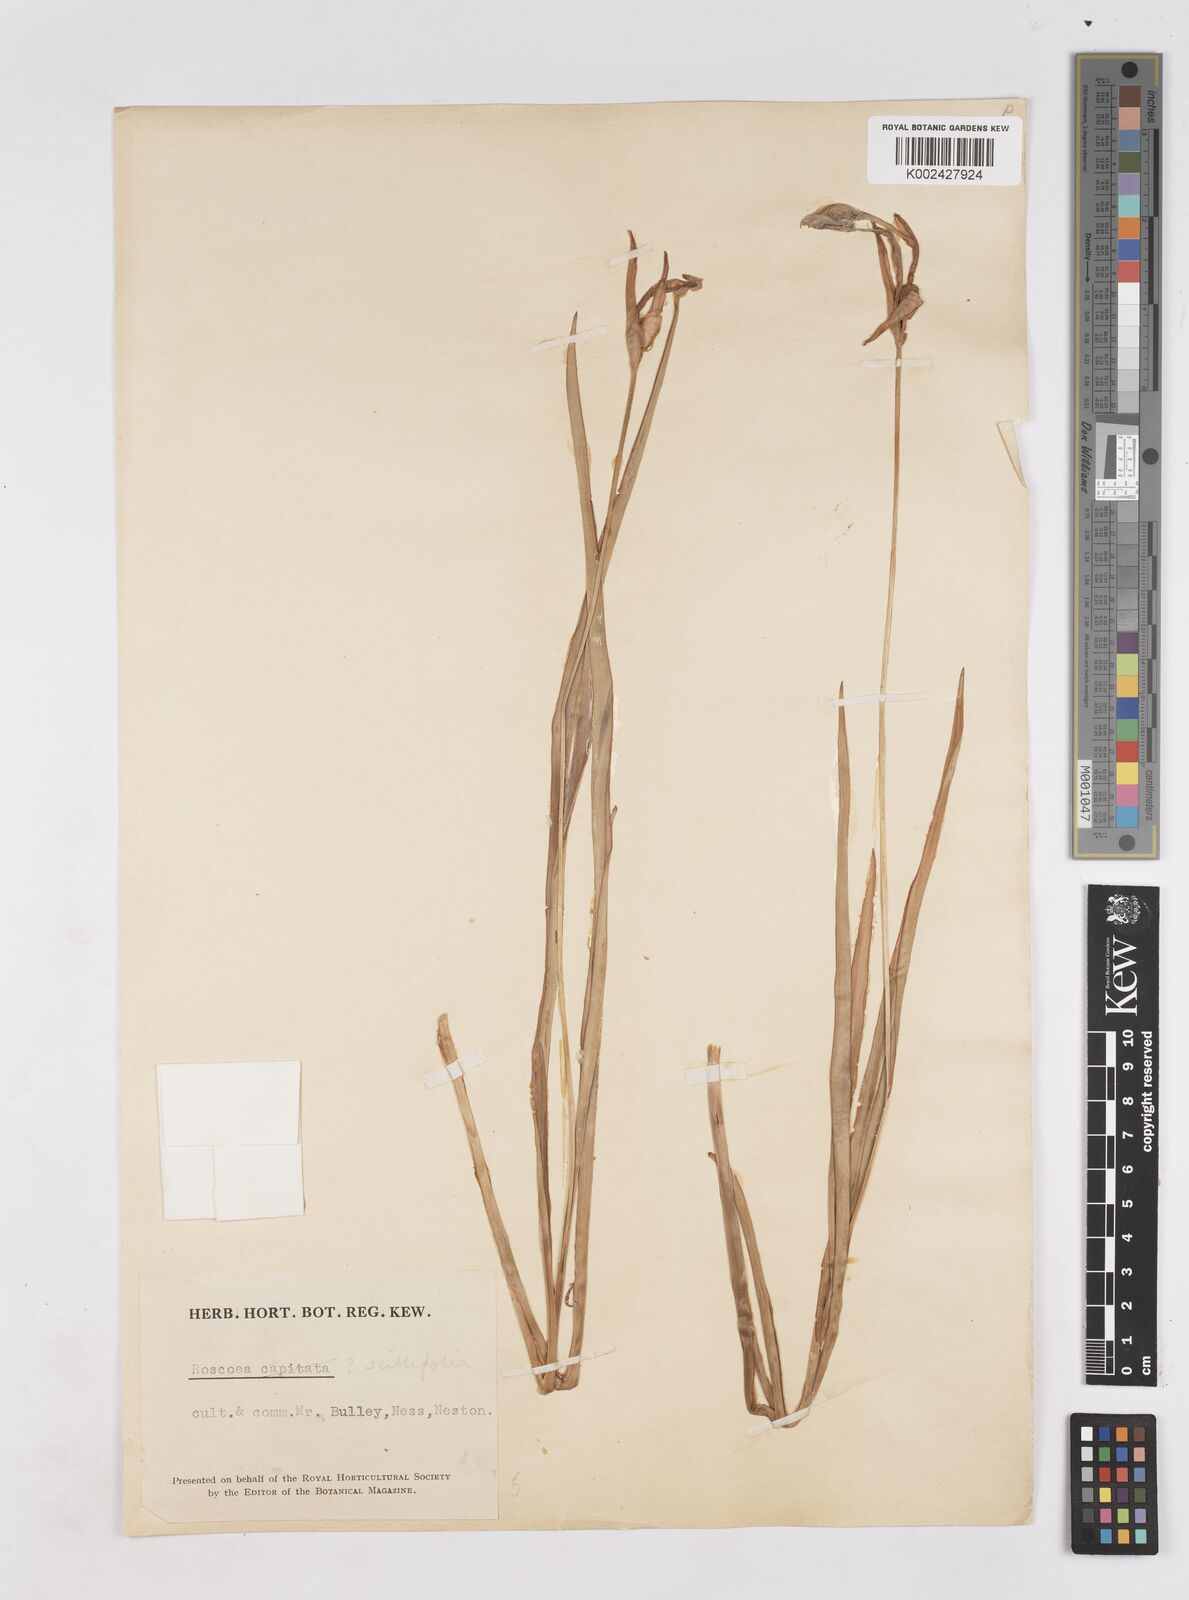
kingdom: Plantae
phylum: Tracheophyta
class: Liliopsida
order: Zingiberales
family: Zingiberaceae
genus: Roscoea
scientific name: Roscoea scillifolia
